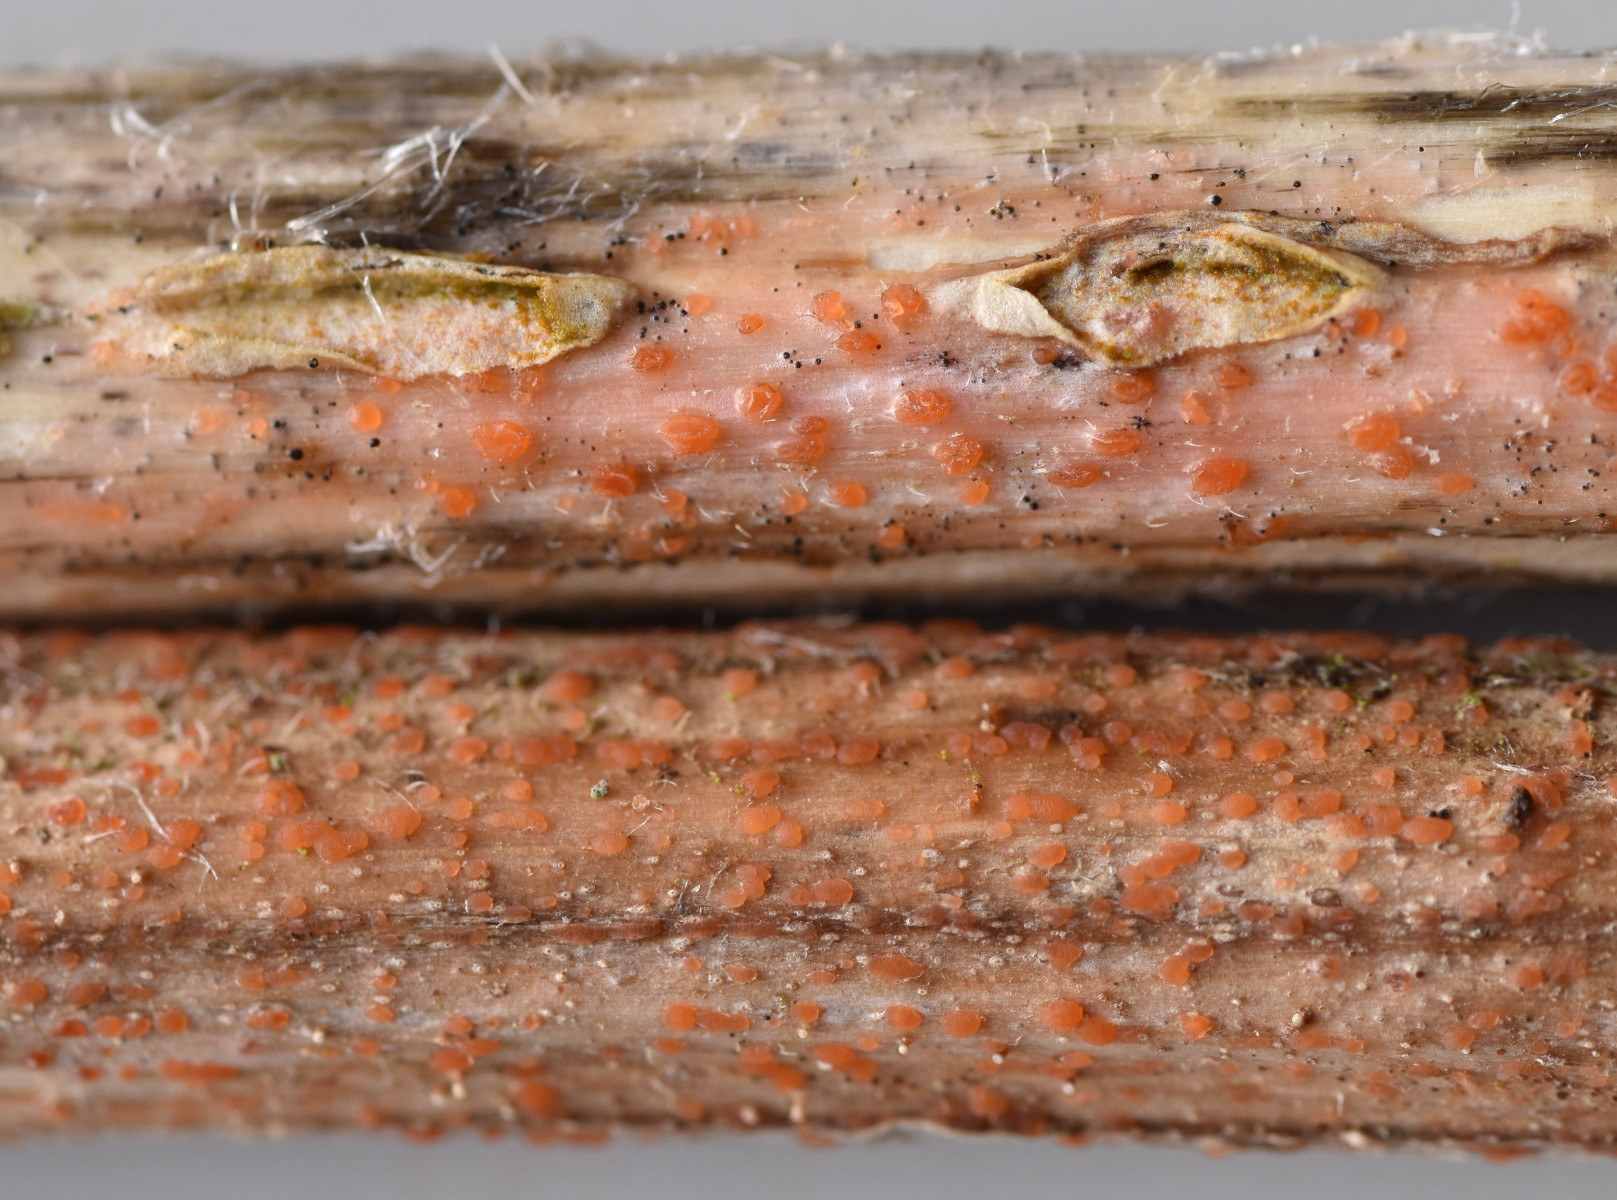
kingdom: Fungi
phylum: Ascomycota
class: Leotiomycetes
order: Helotiales
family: Calloriaceae
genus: Calloria
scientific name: Calloria urticae
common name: nælde-orangeskive
